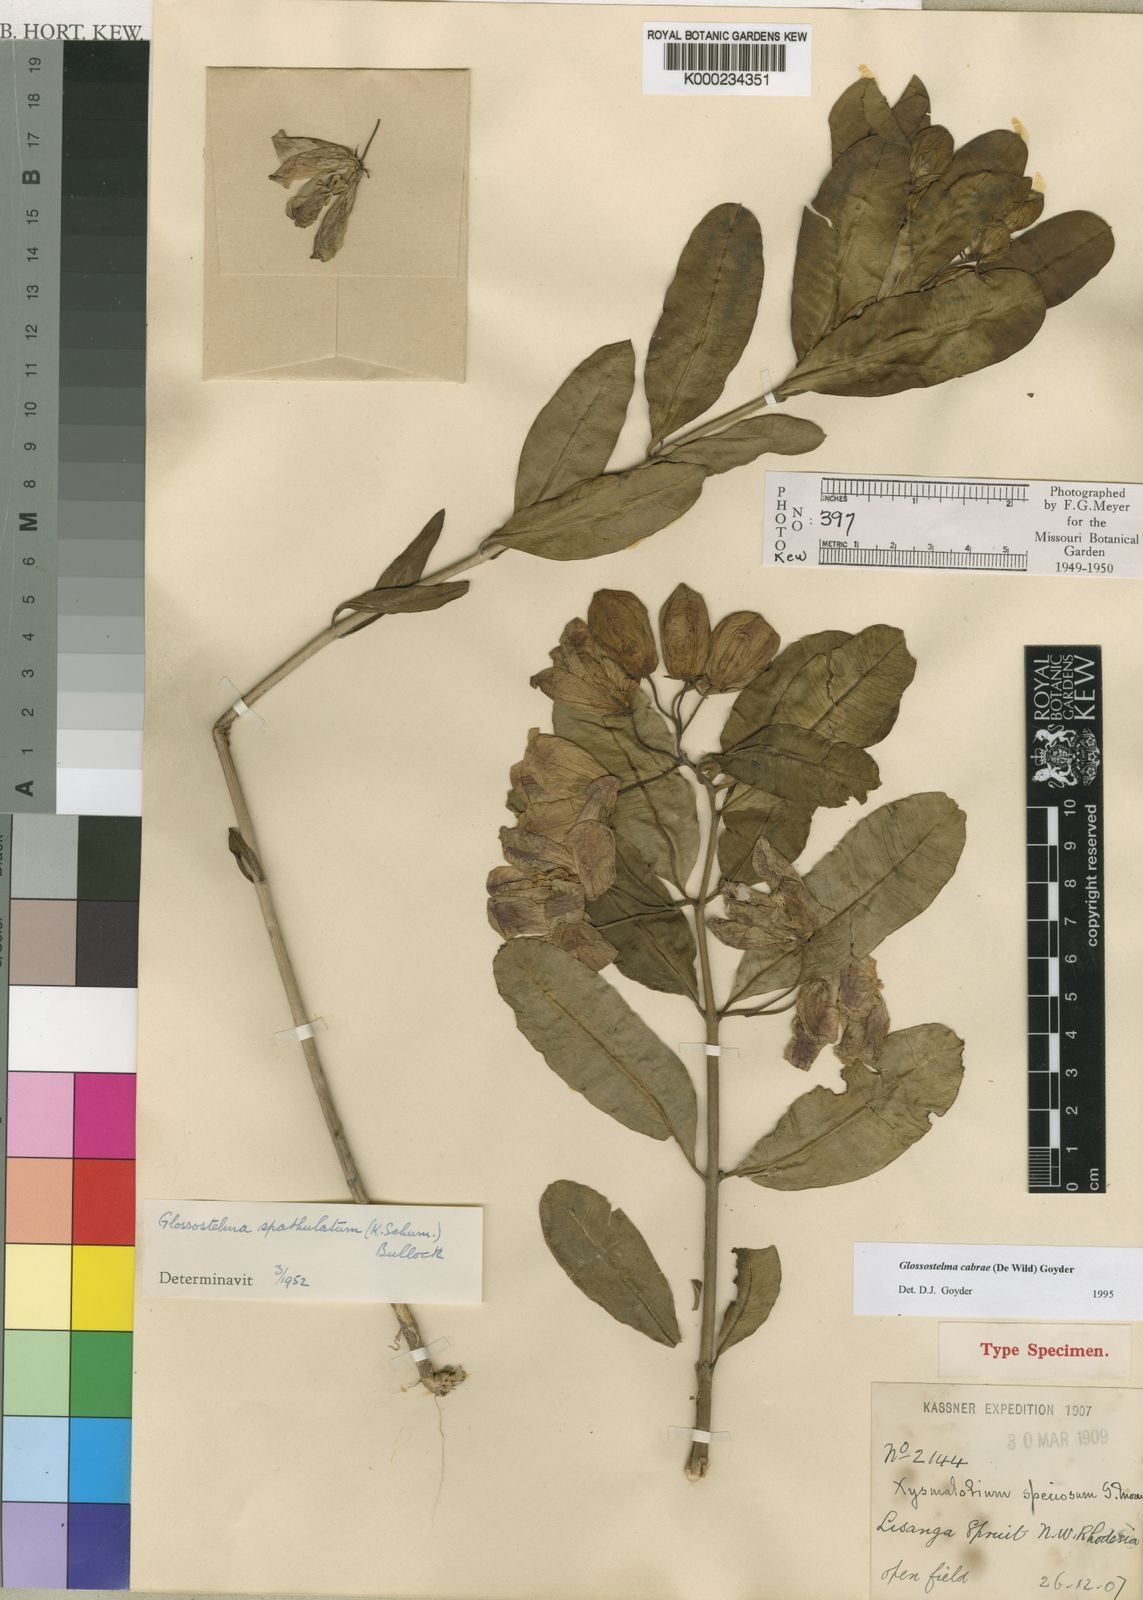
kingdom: Plantae
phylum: Tracheophyta
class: Magnoliopsida
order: Gentianales
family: Apocynaceae
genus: Glossostelma
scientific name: Glossostelma cabrae
